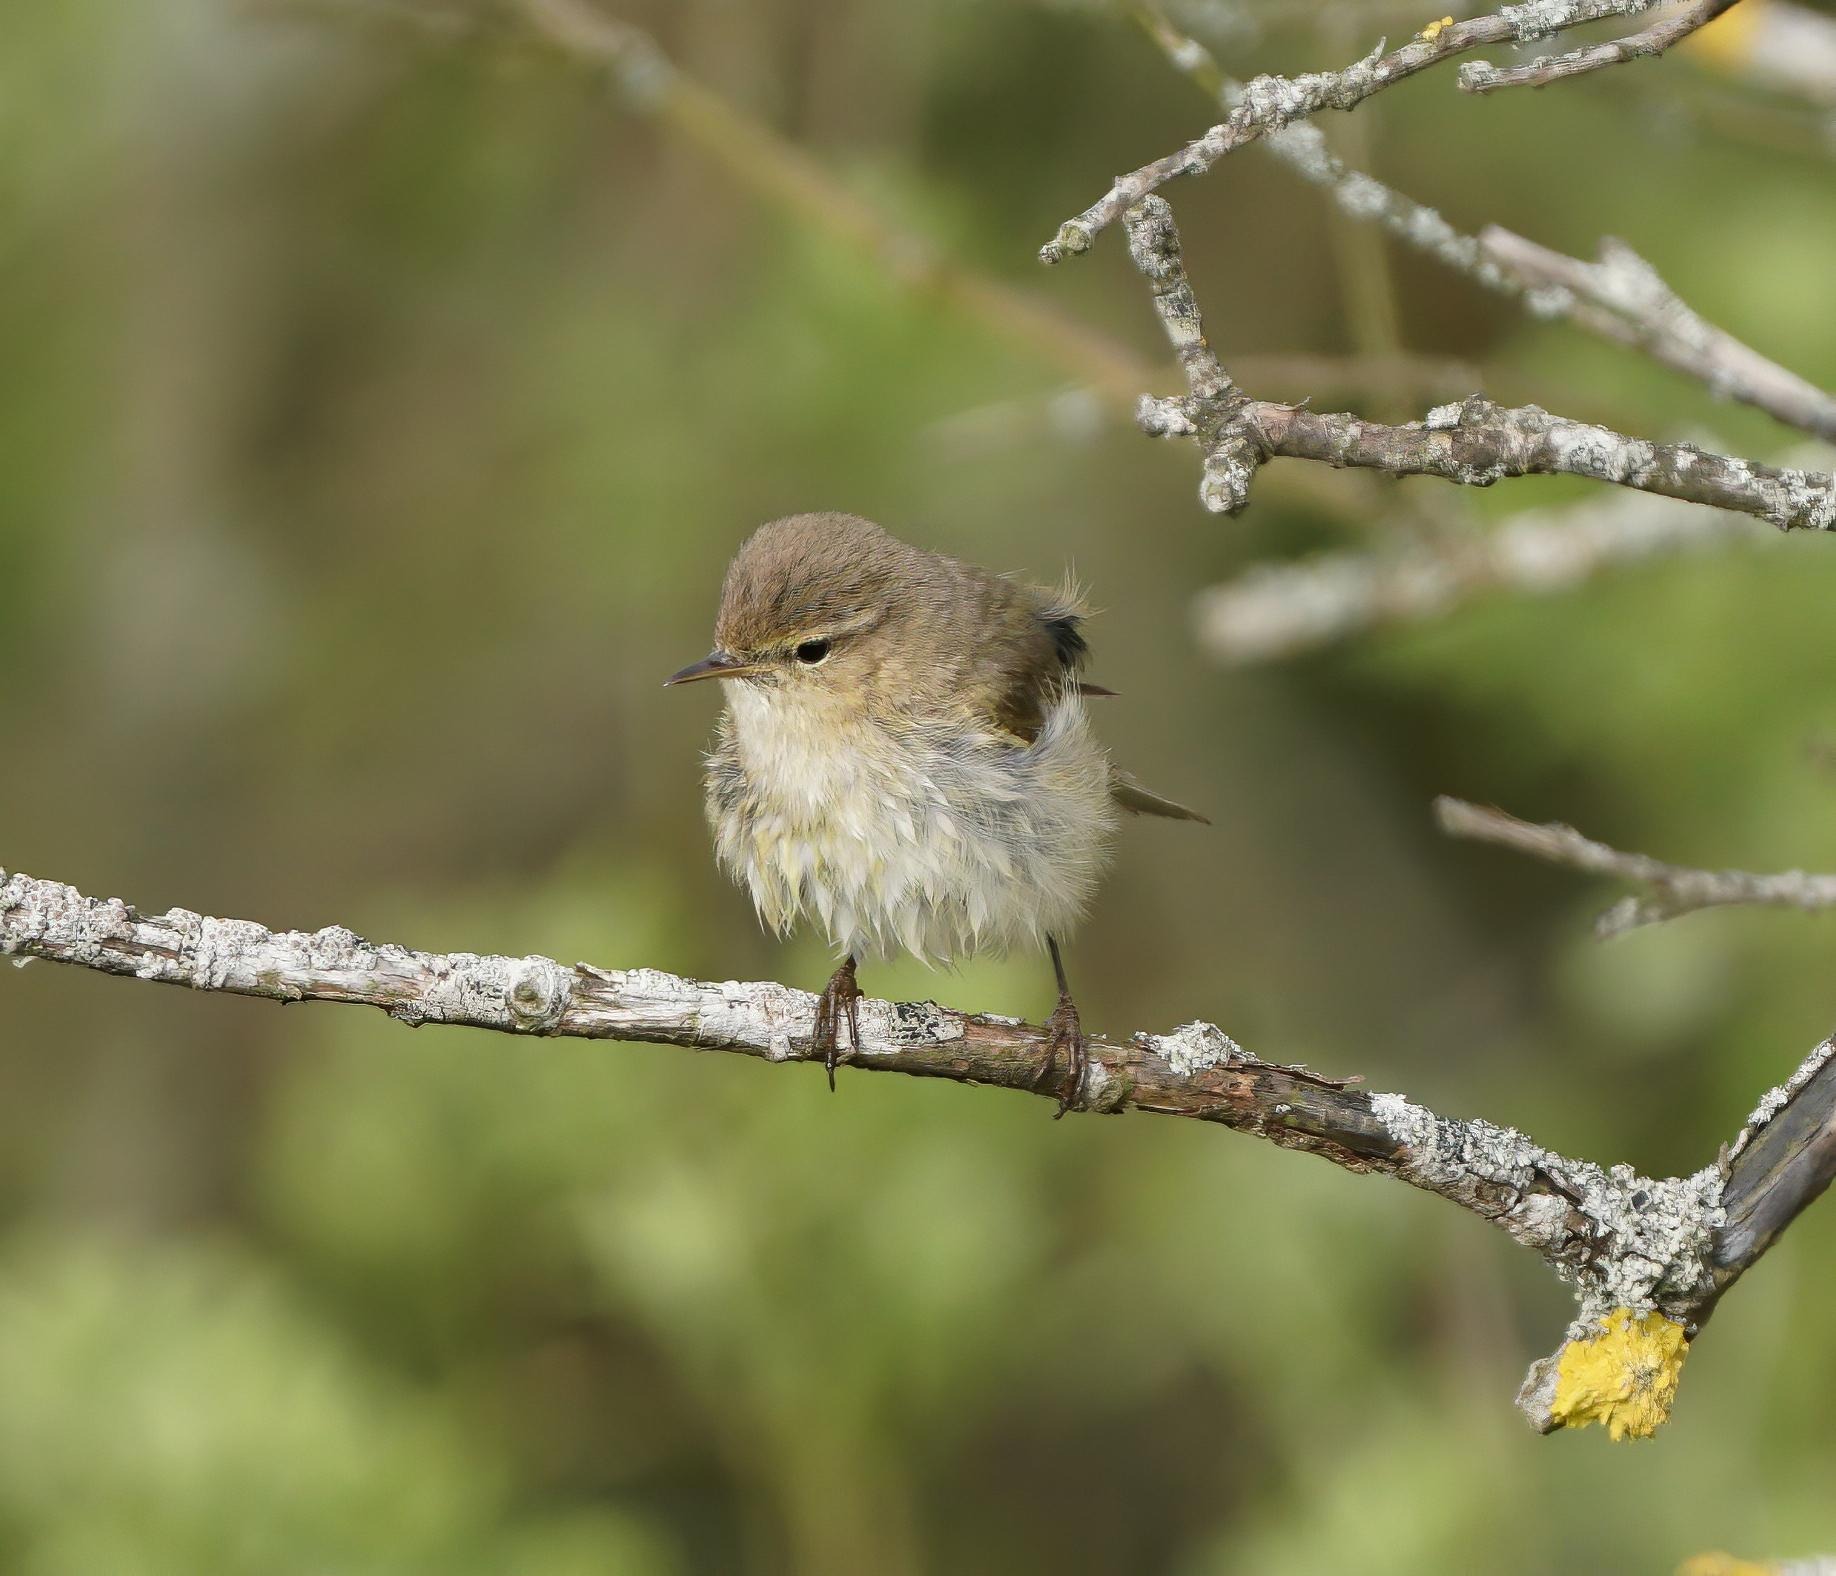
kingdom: Animalia
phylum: Chordata
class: Aves
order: Passeriformes
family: Phylloscopidae
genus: Phylloscopus
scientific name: Phylloscopus collybita
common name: Gransanger
